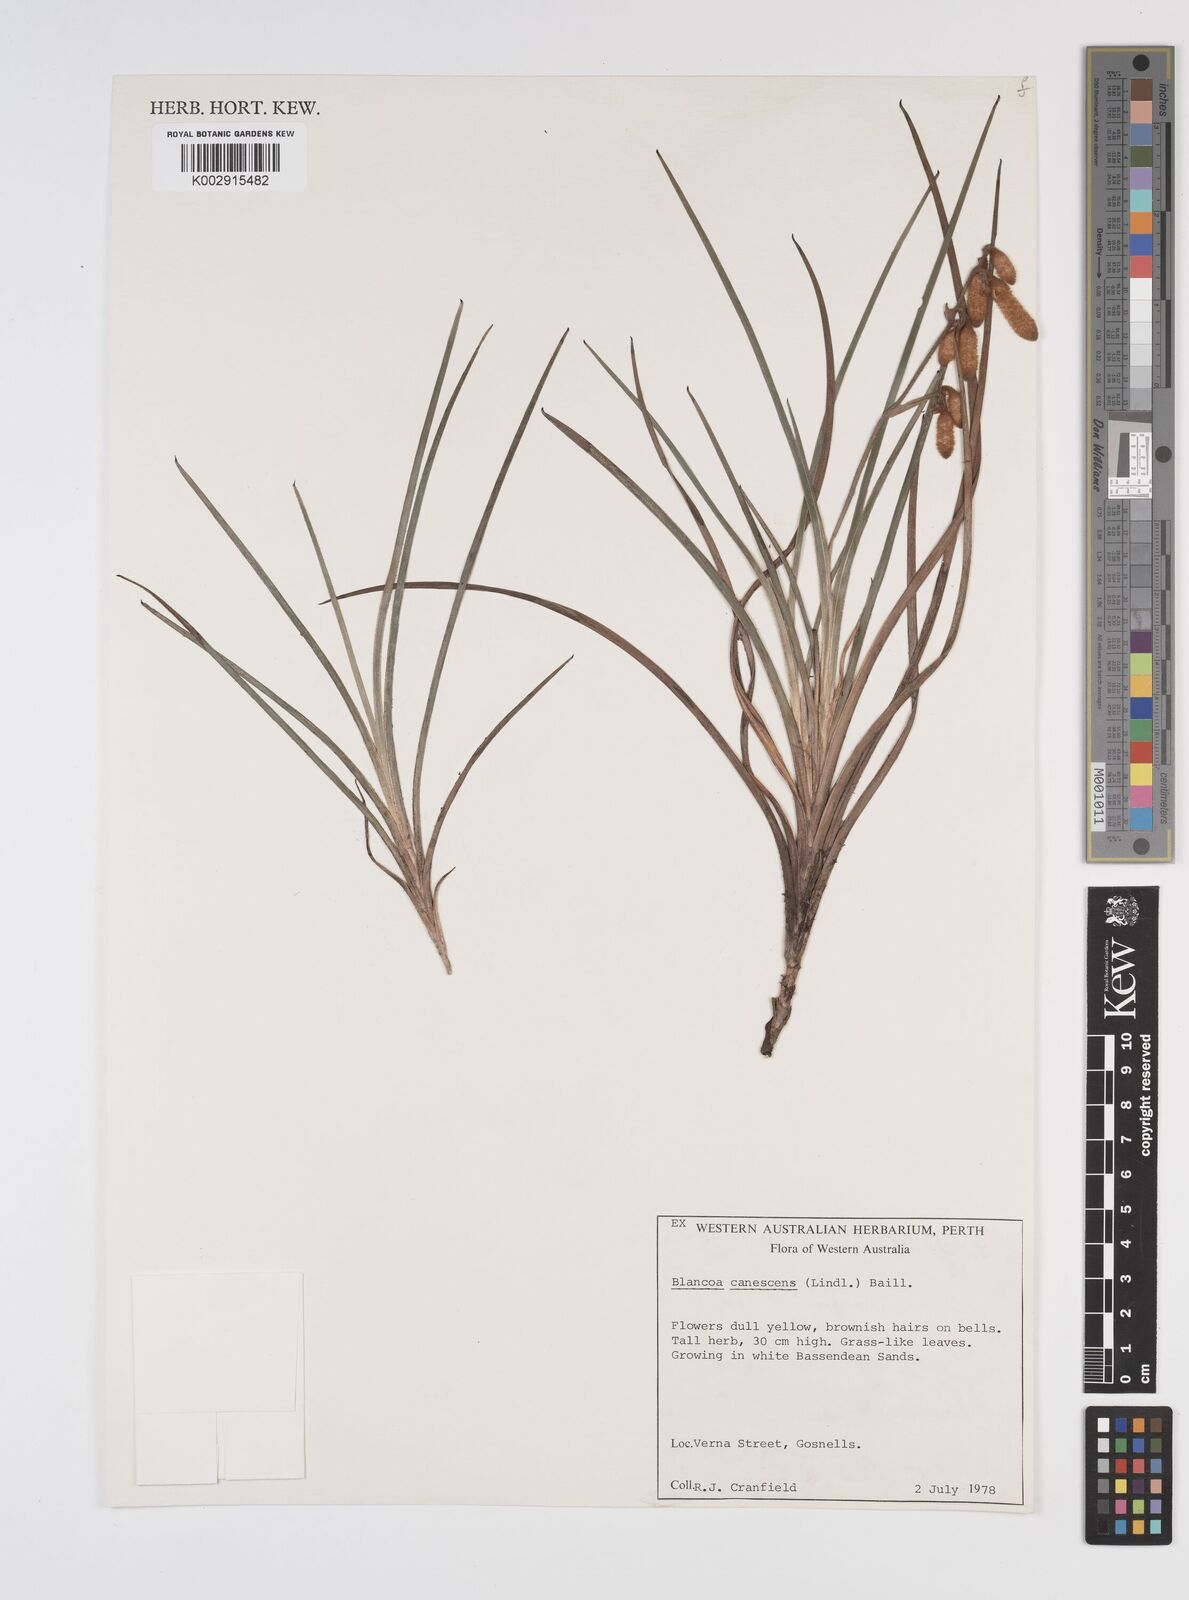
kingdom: Plantae
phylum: Tracheophyta
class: Liliopsida
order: Commelinales
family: Haemodoraceae
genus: Blancoa
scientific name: Blancoa canescens
